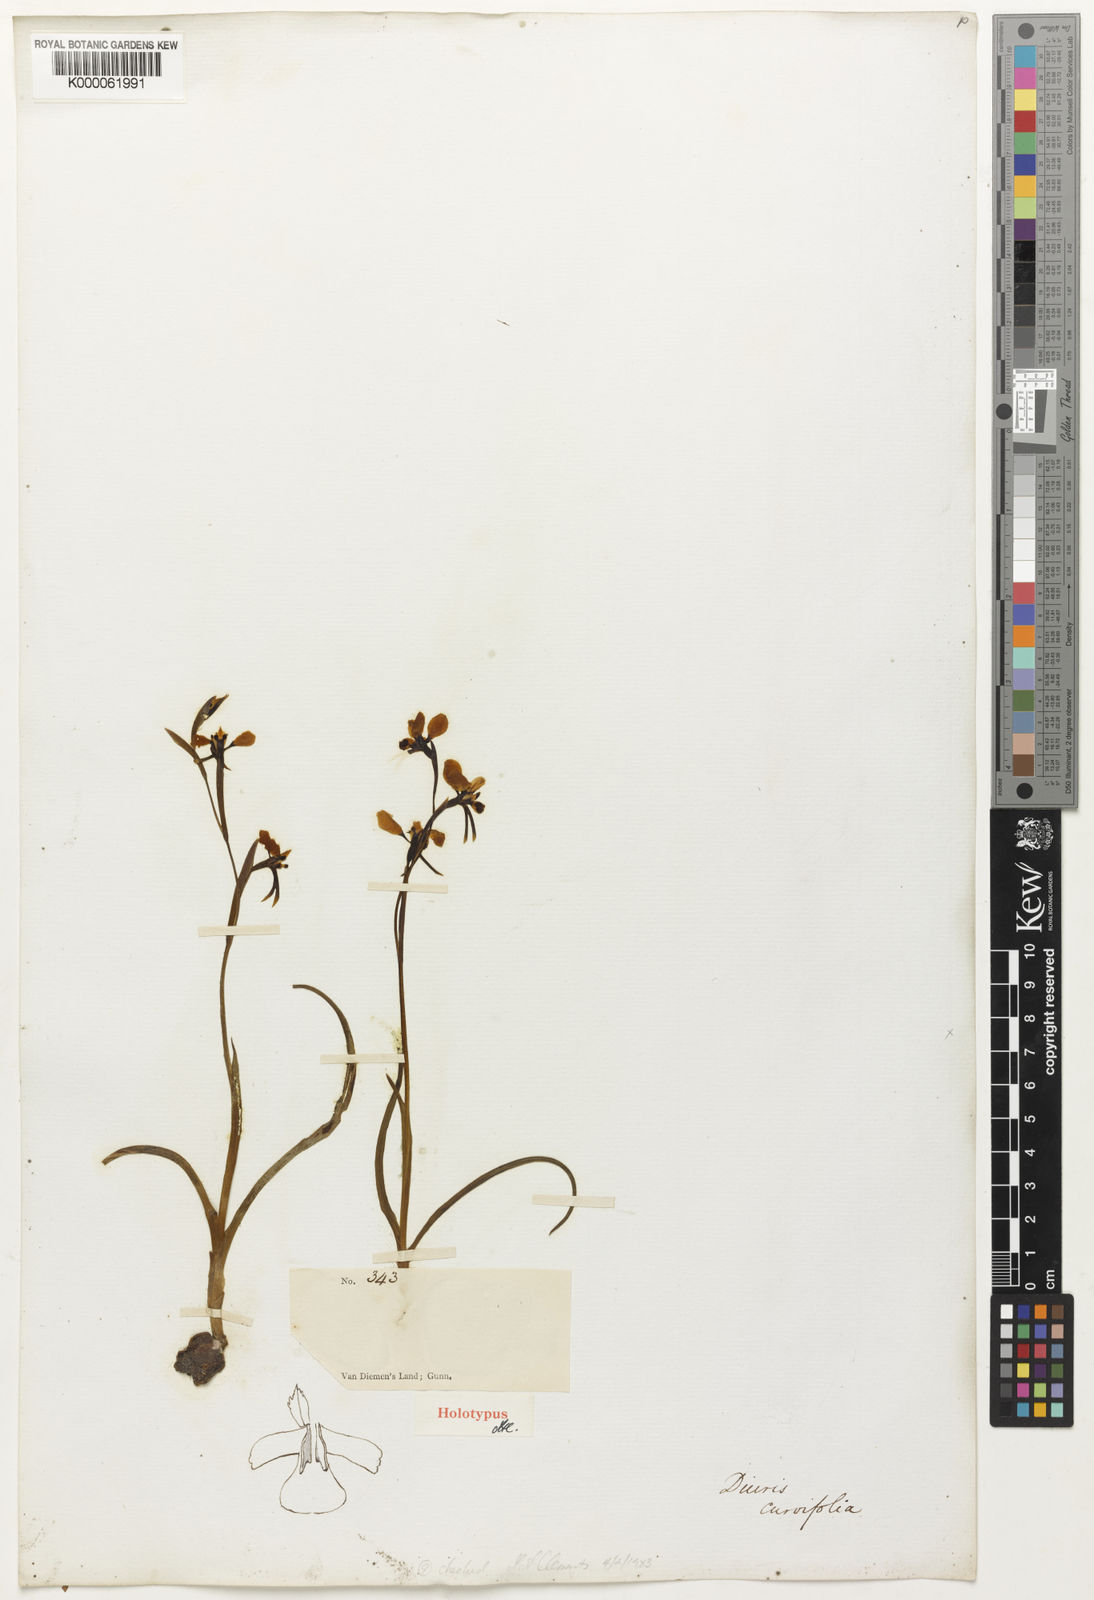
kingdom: Plantae
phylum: Tracheophyta
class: Liliopsida
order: Asparagales
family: Orchidaceae
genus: Diuris
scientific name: Diuris pardina
